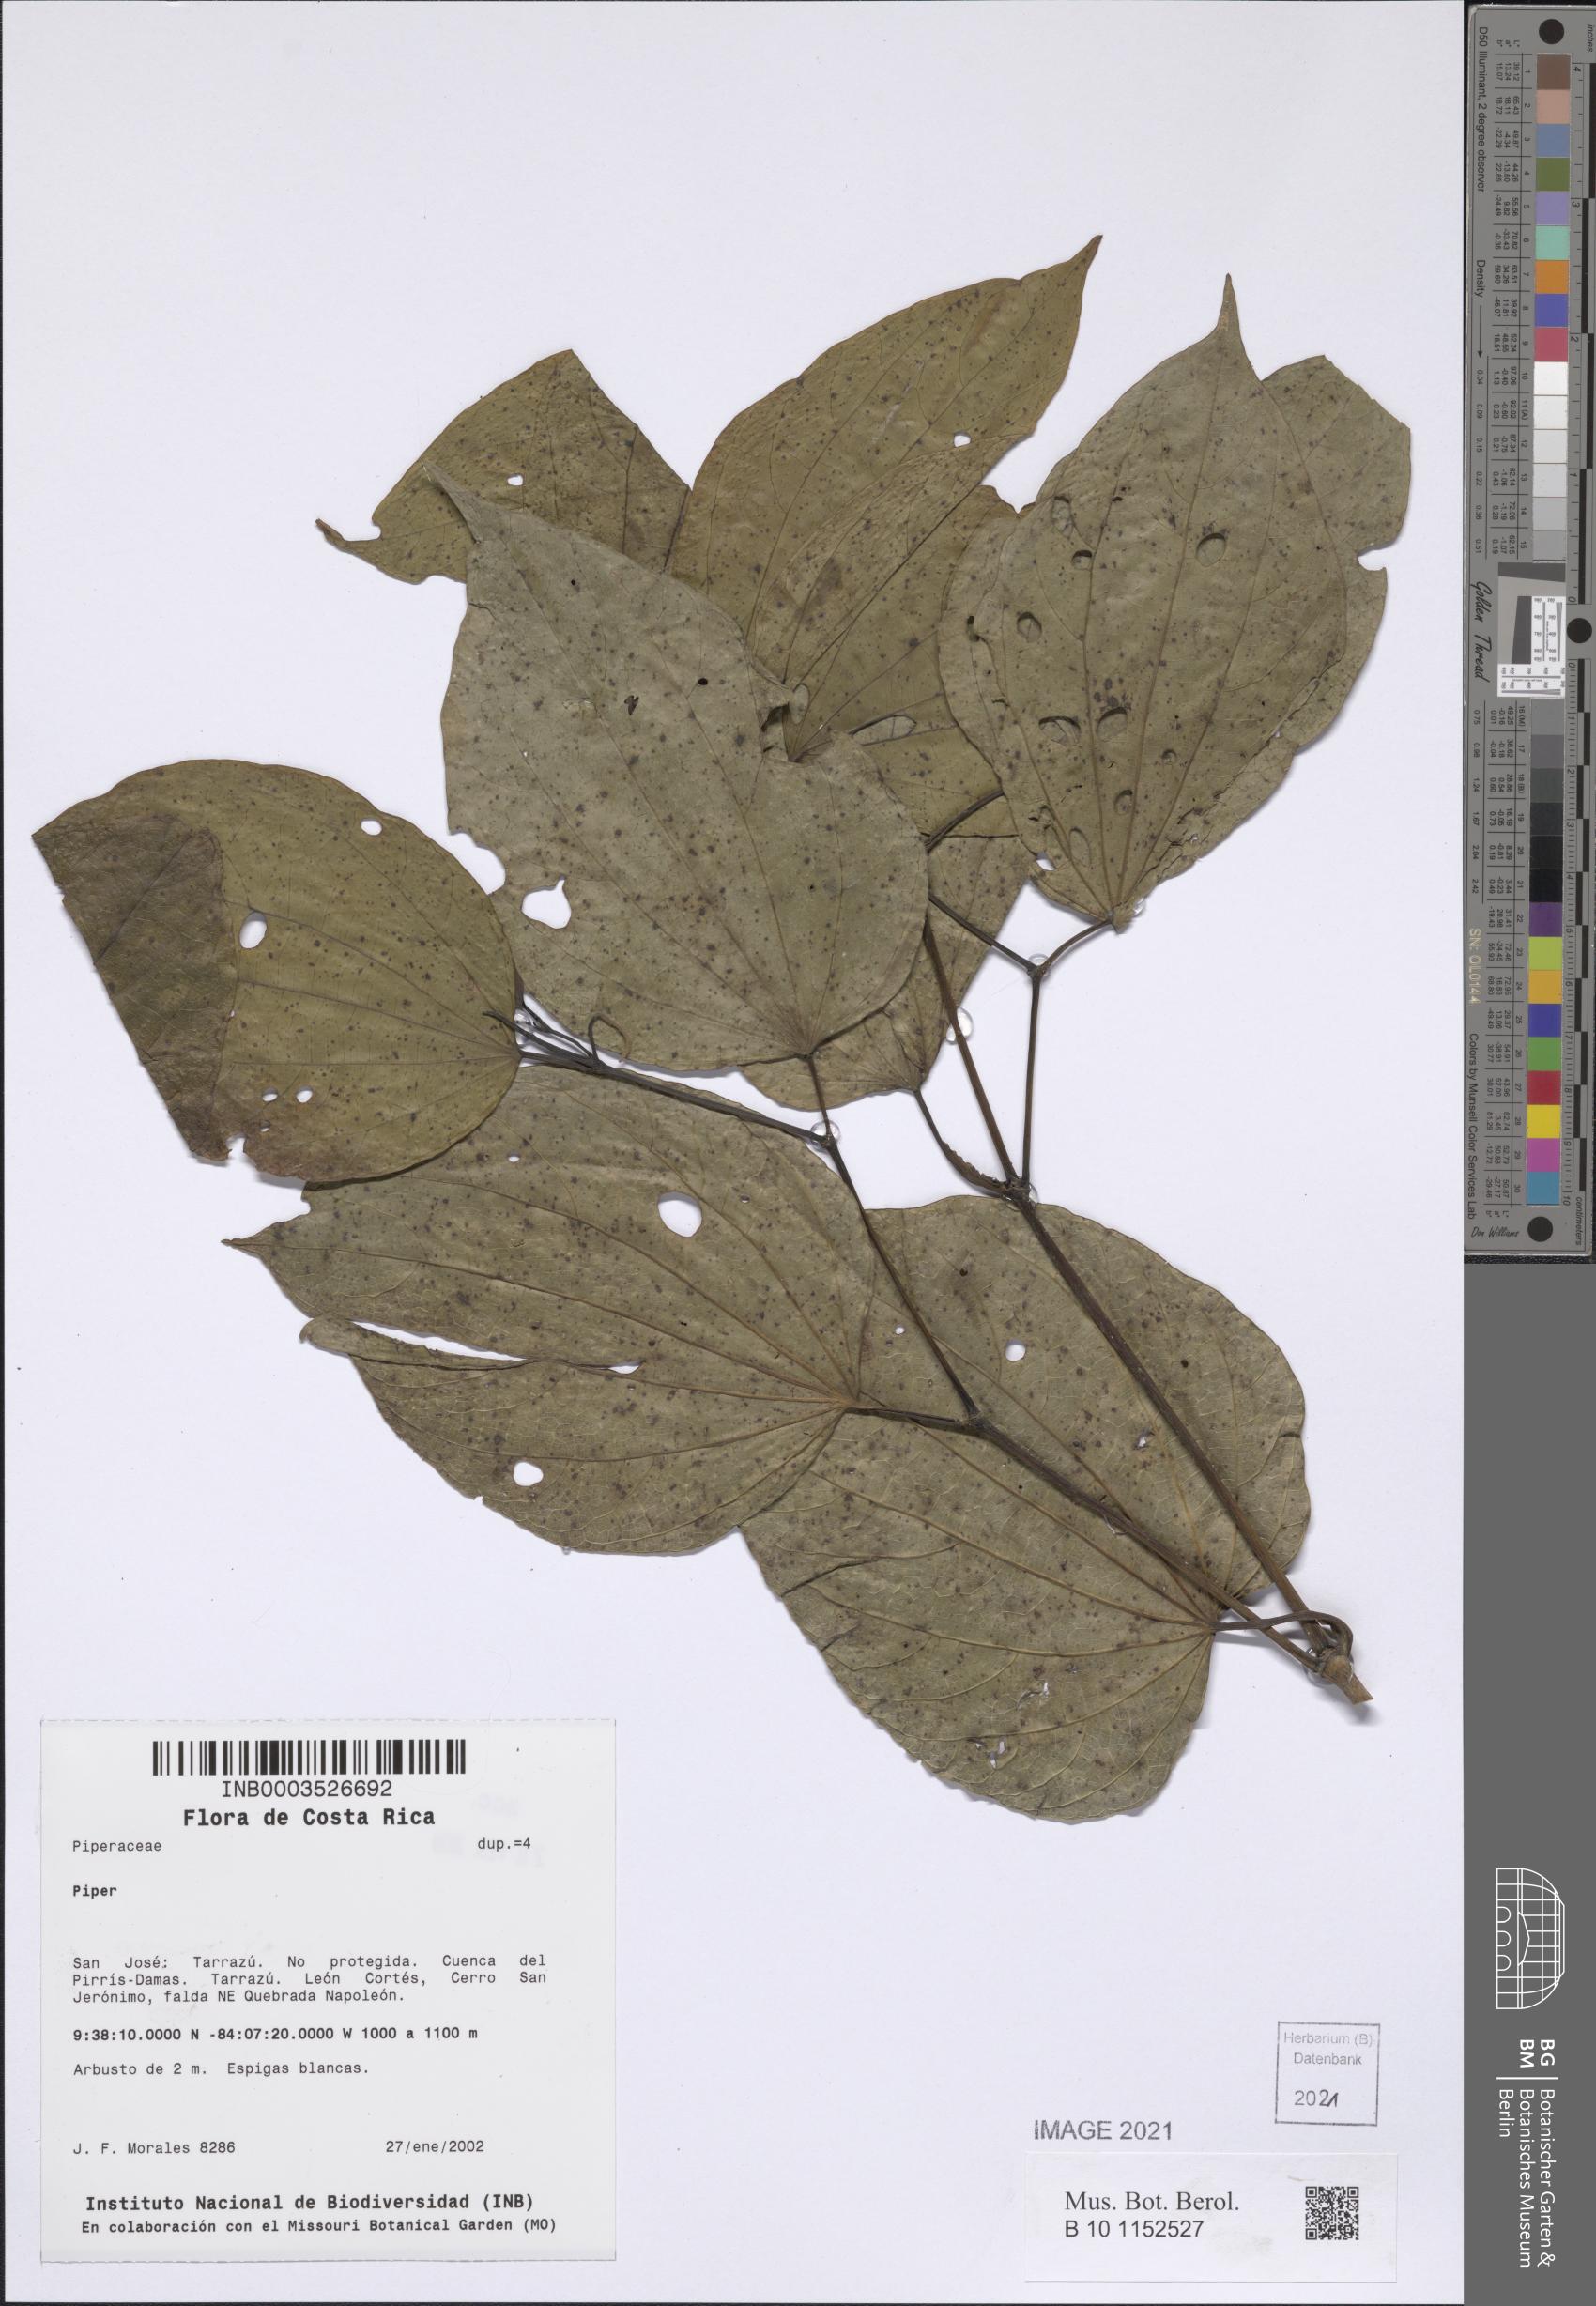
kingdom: Plantae
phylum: Tracheophyta
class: Magnoliopsida
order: Piperales
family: Piperaceae
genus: Piper
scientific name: Piper
